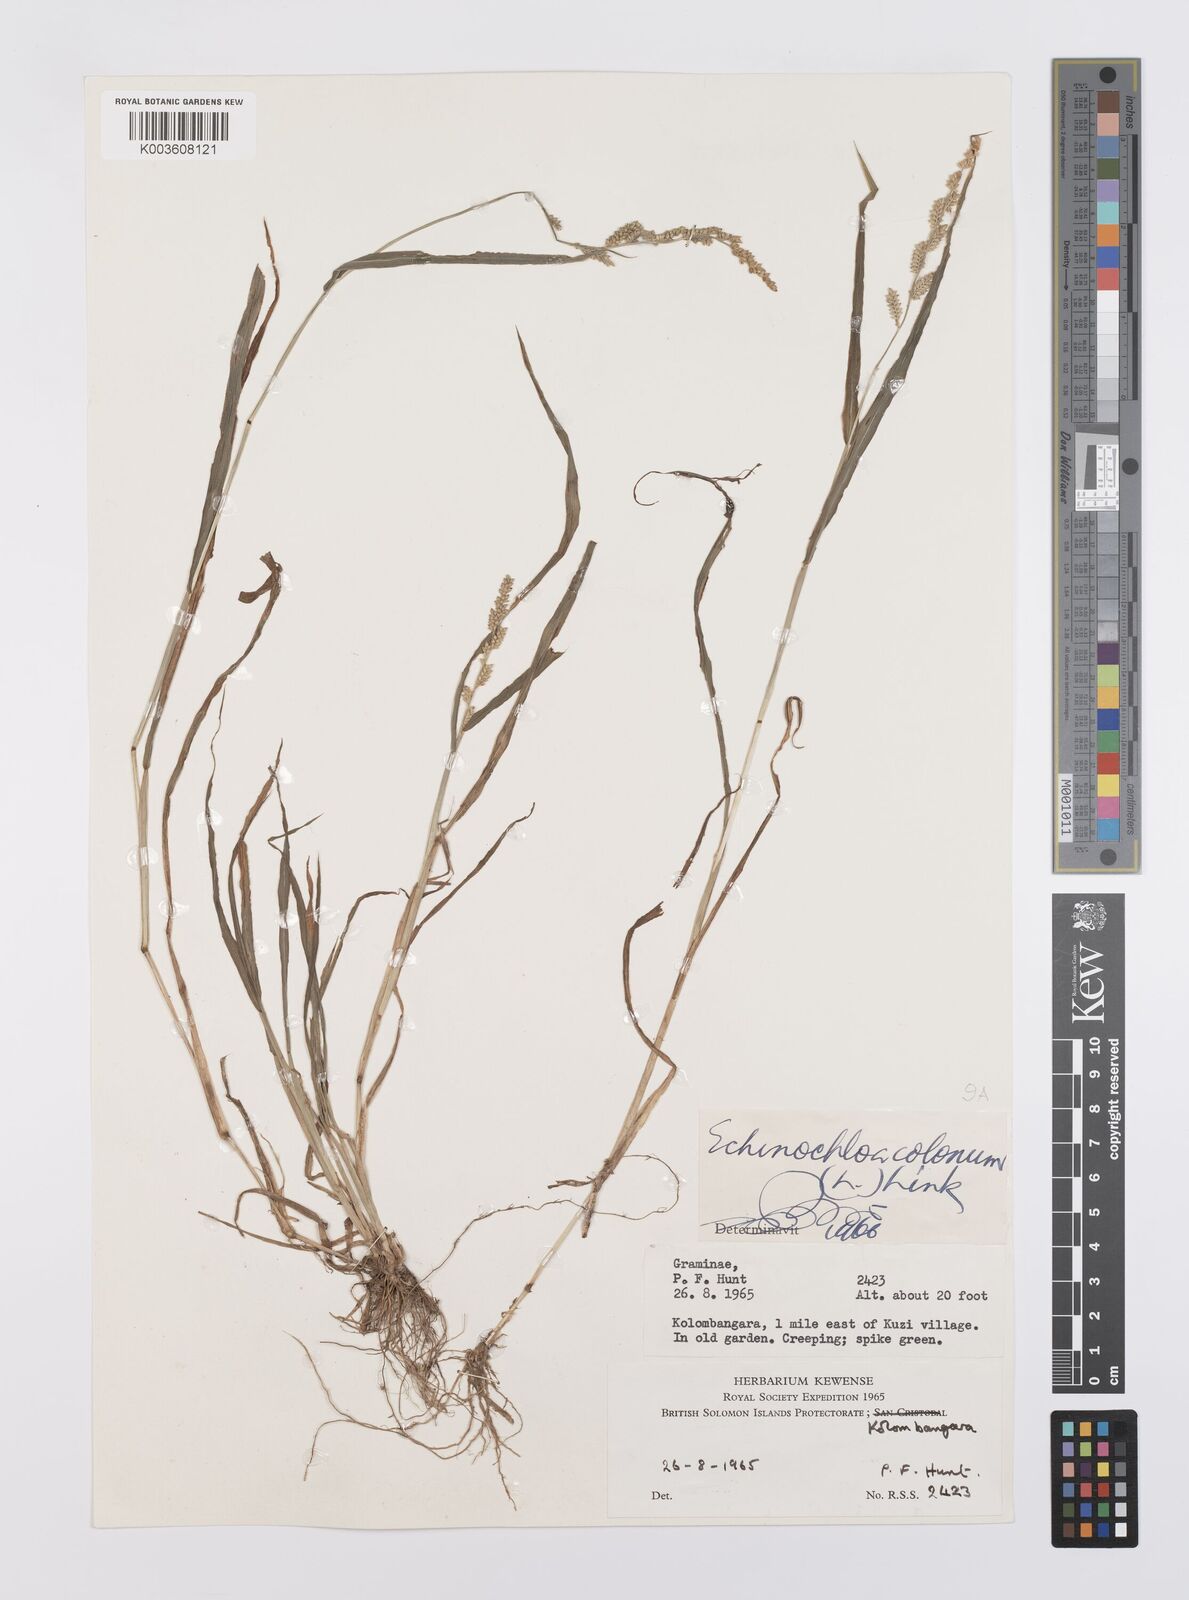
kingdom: Plantae
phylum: Tracheophyta
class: Liliopsida
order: Poales
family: Poaceae
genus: Echinochloa
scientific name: Echinochloa colonum
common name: Jungle rice
